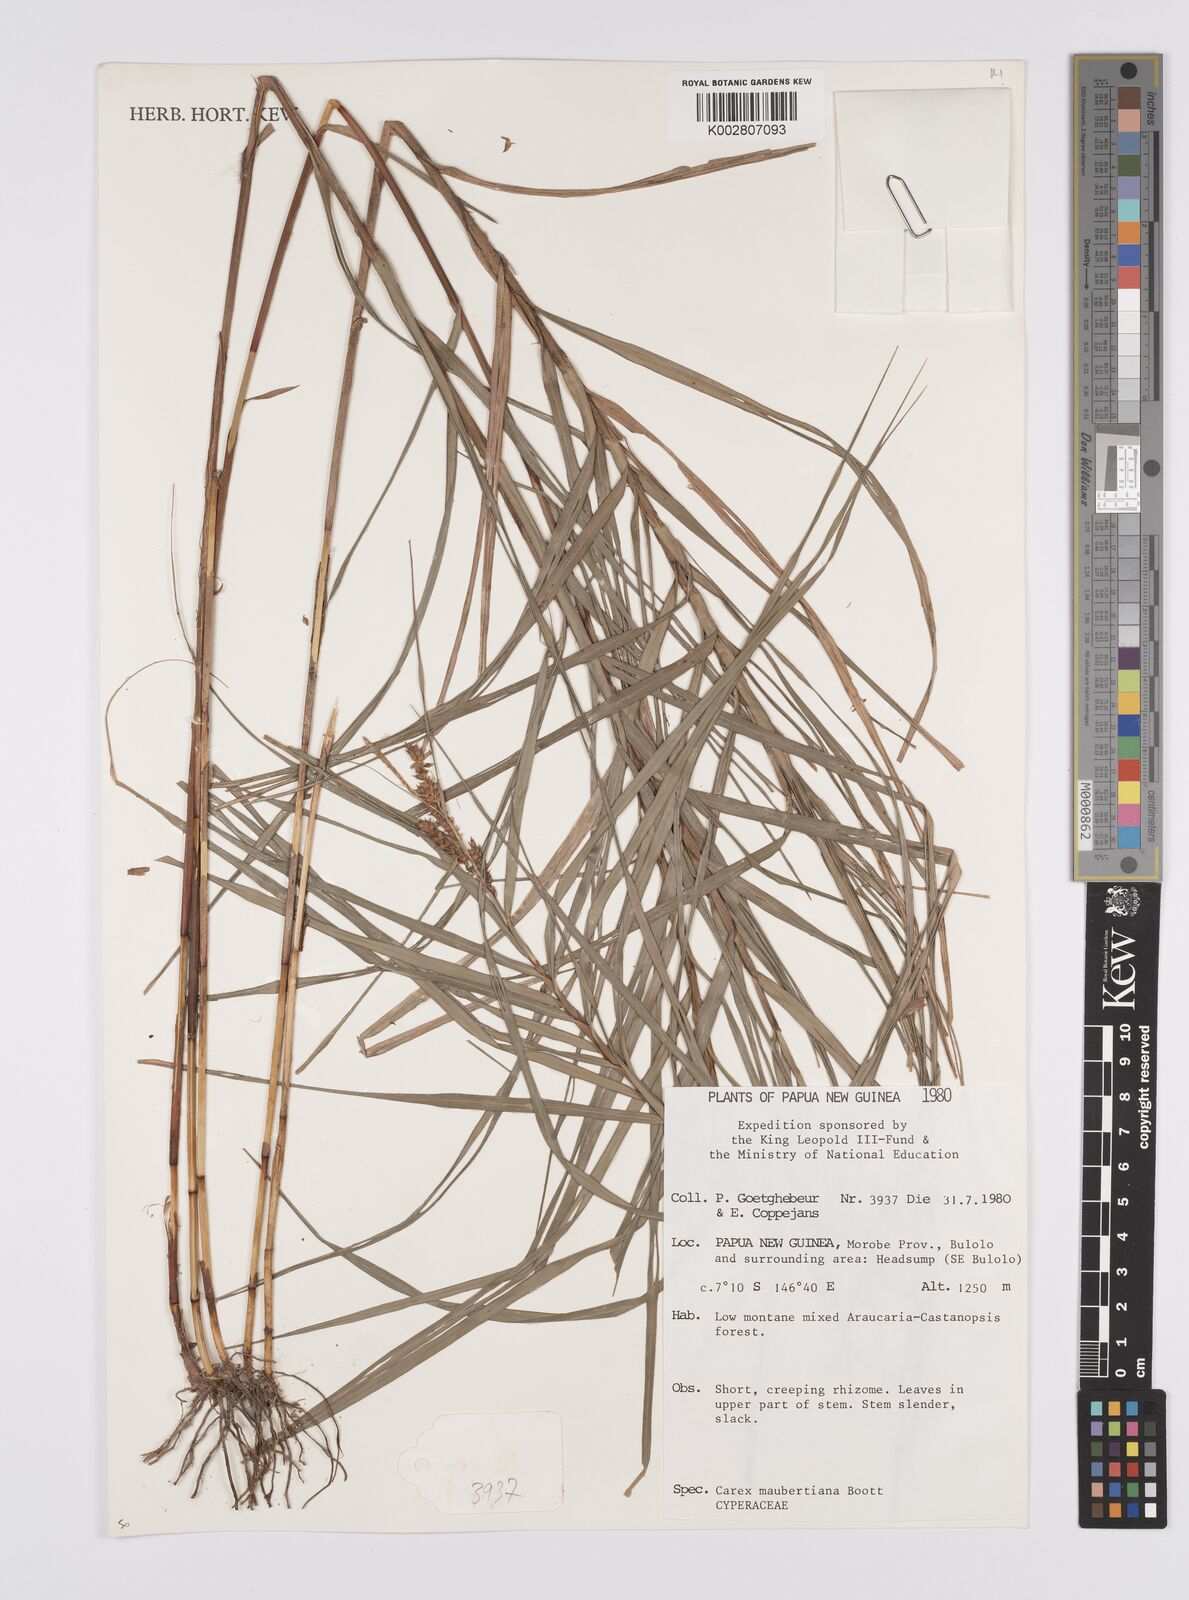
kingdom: Plantae
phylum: Tracheophyta
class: Liliopsida
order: Poales
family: Cyperaceae
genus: Carex
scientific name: Carex maubertiana
